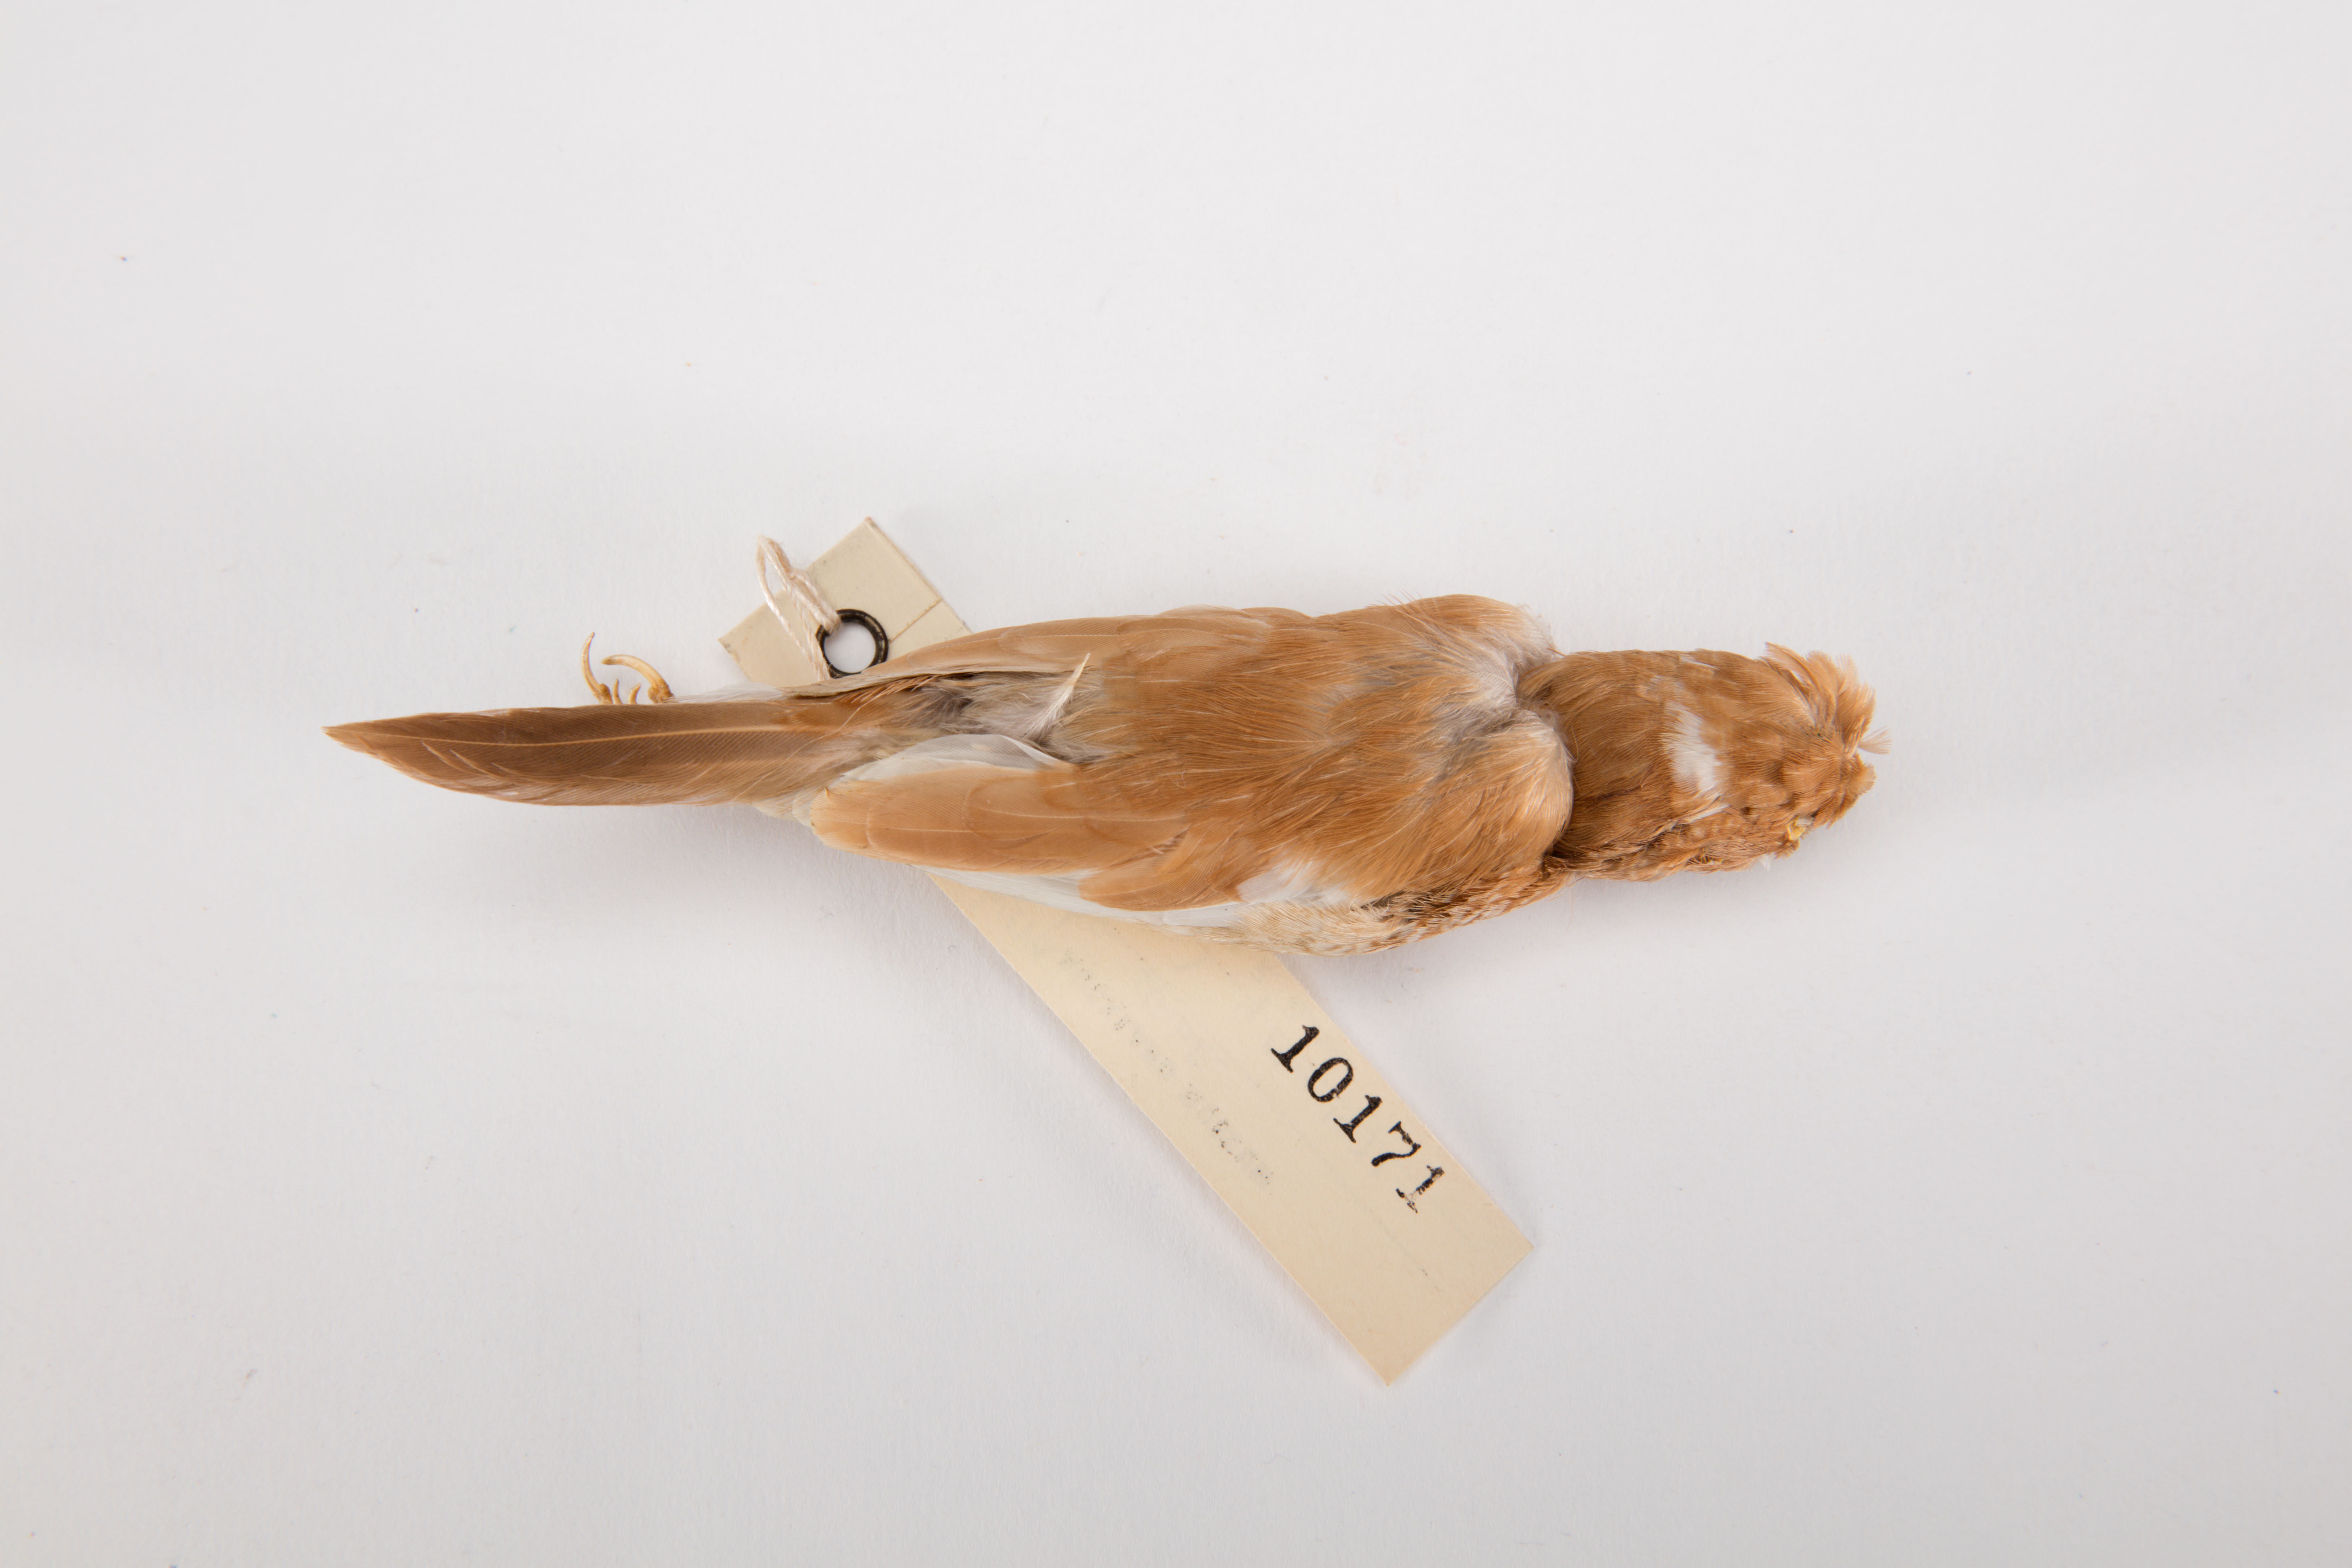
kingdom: Animalia
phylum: Chordata
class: Aves
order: Passeriformes
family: Estrildidae
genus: Lonchura
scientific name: Lonchura striata
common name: White-rumped munia
